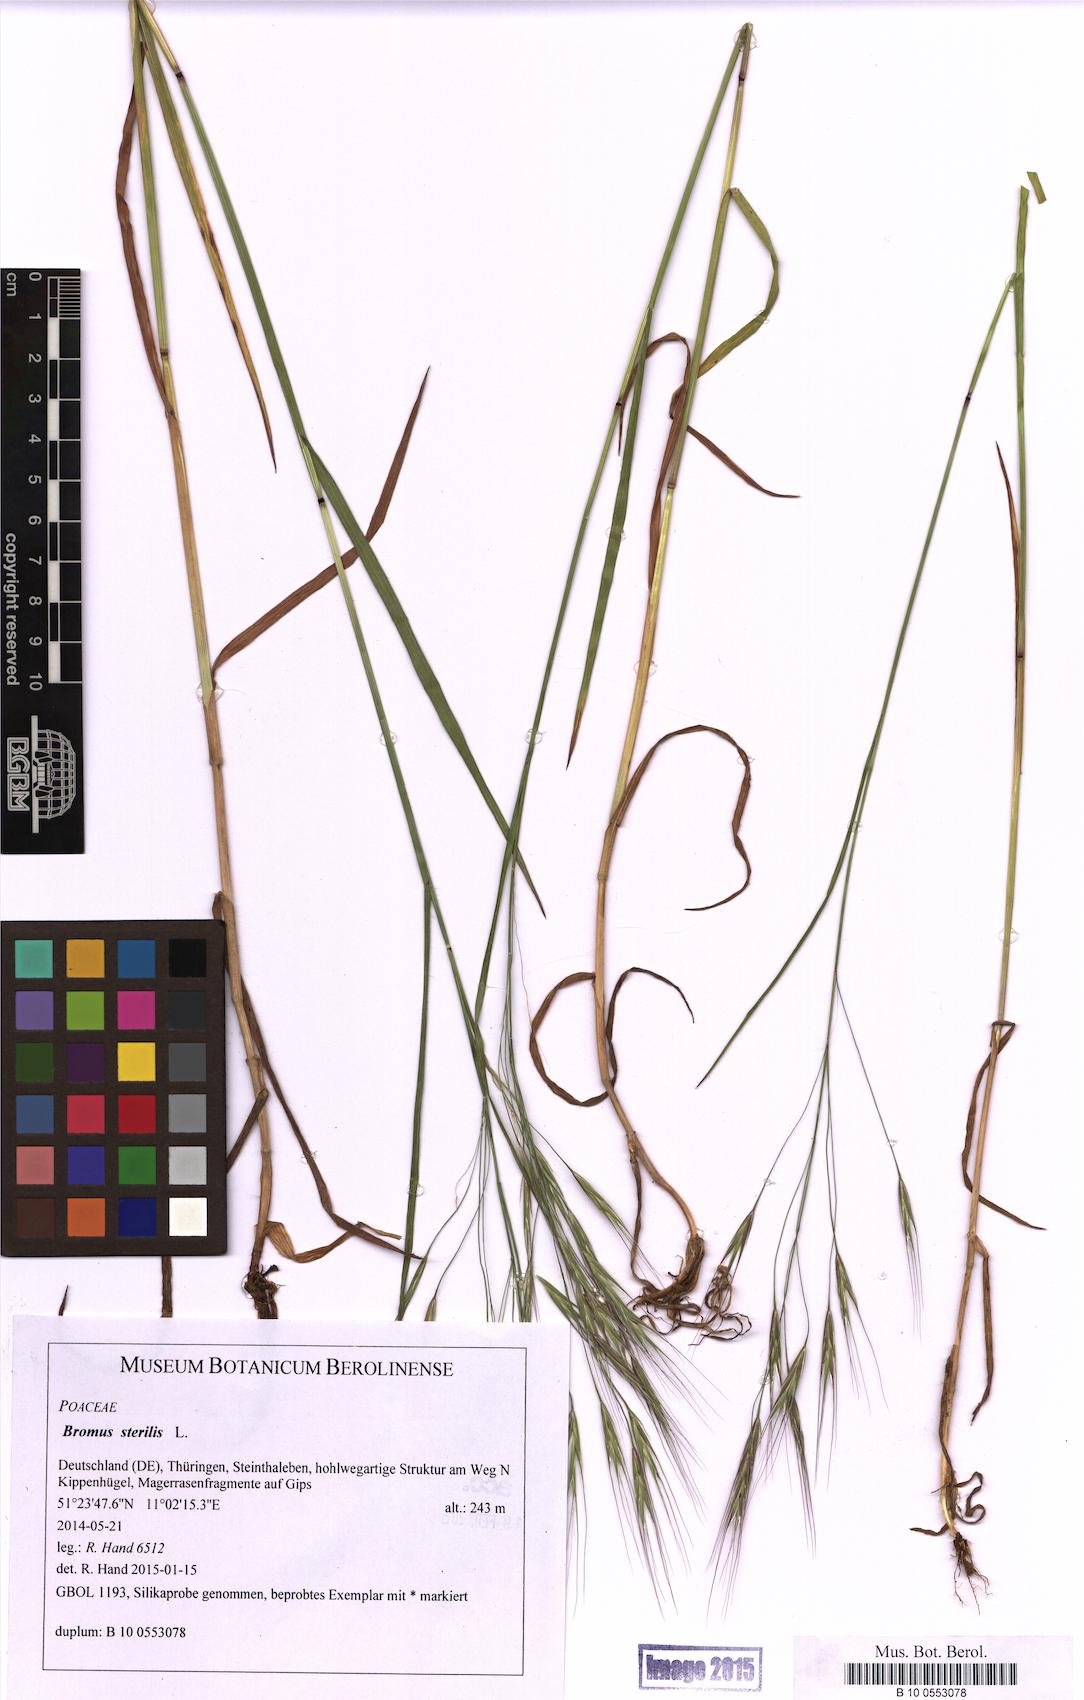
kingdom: Plantae
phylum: Tracheophyta
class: Liliopsida
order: Poales
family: Poaceae
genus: Bromus
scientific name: Bromus sterilis
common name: Poverty brome
